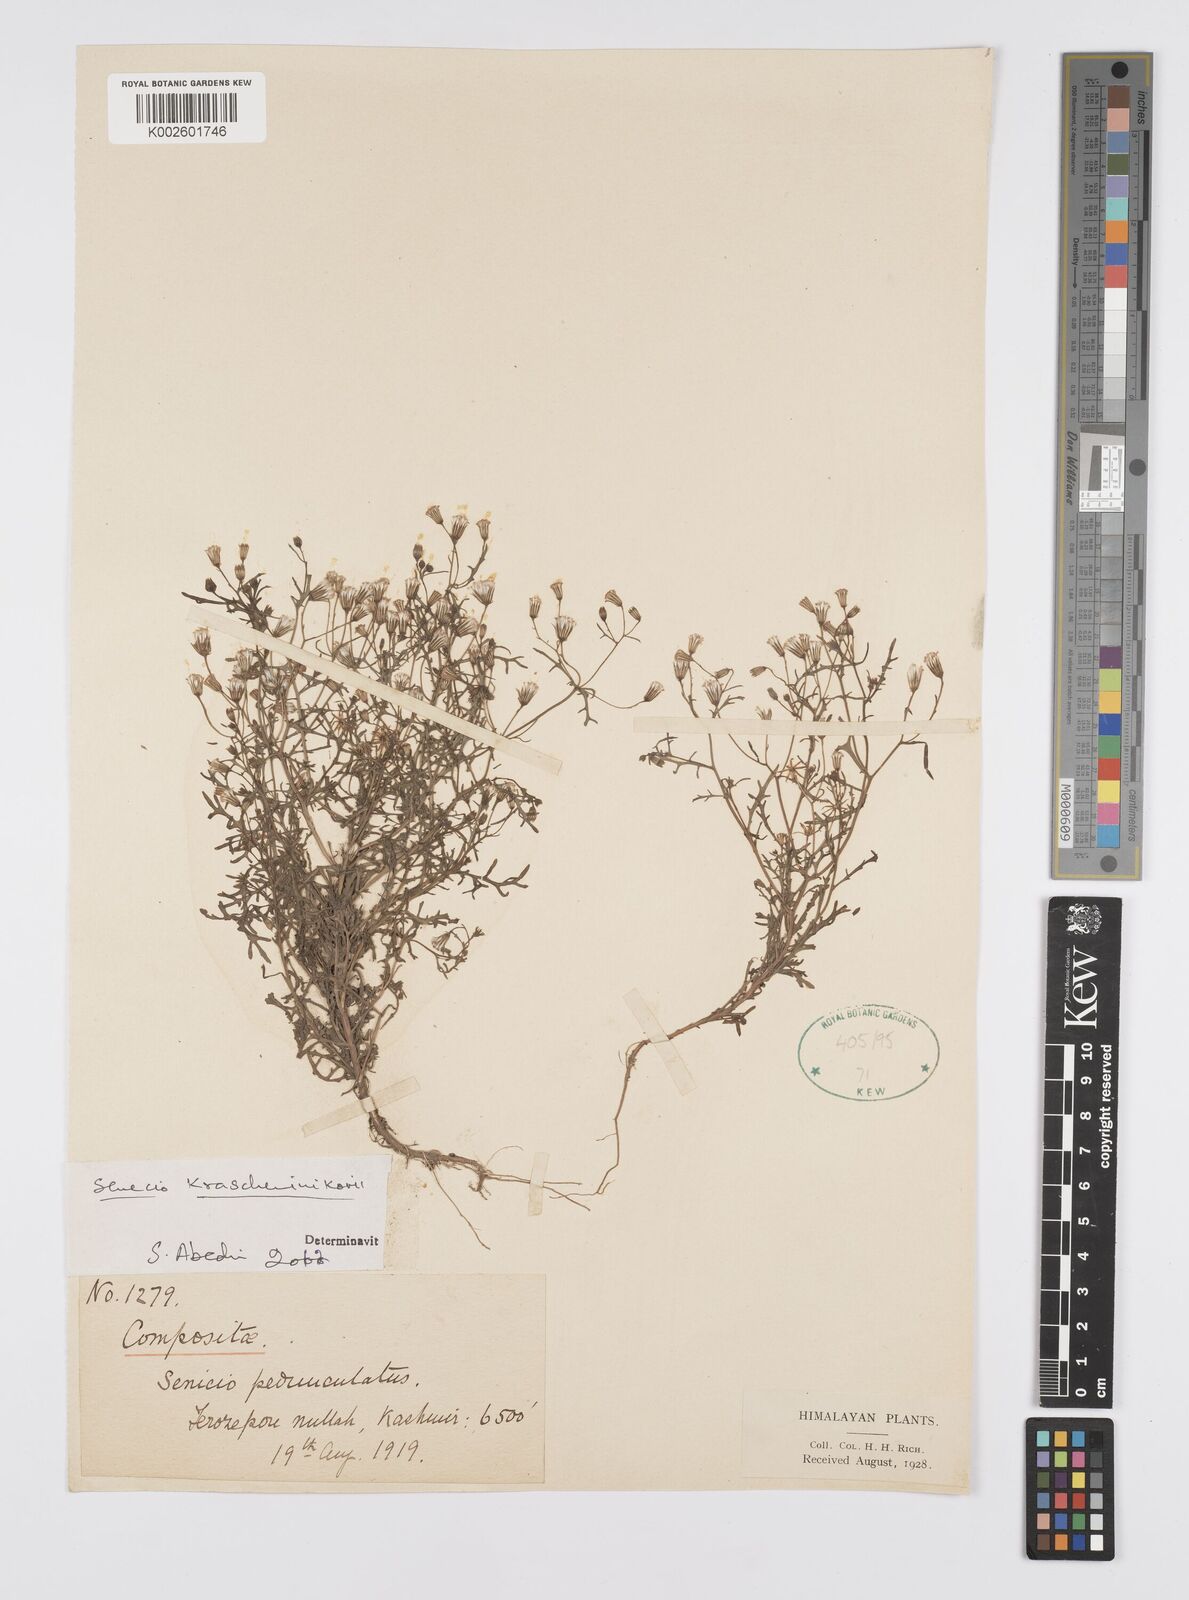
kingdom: Plantae
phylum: Tracheophyta
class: Magnoliopsida
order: Asterales
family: Asteraceae
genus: Senecio
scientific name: Senecio krascheninnikovii
